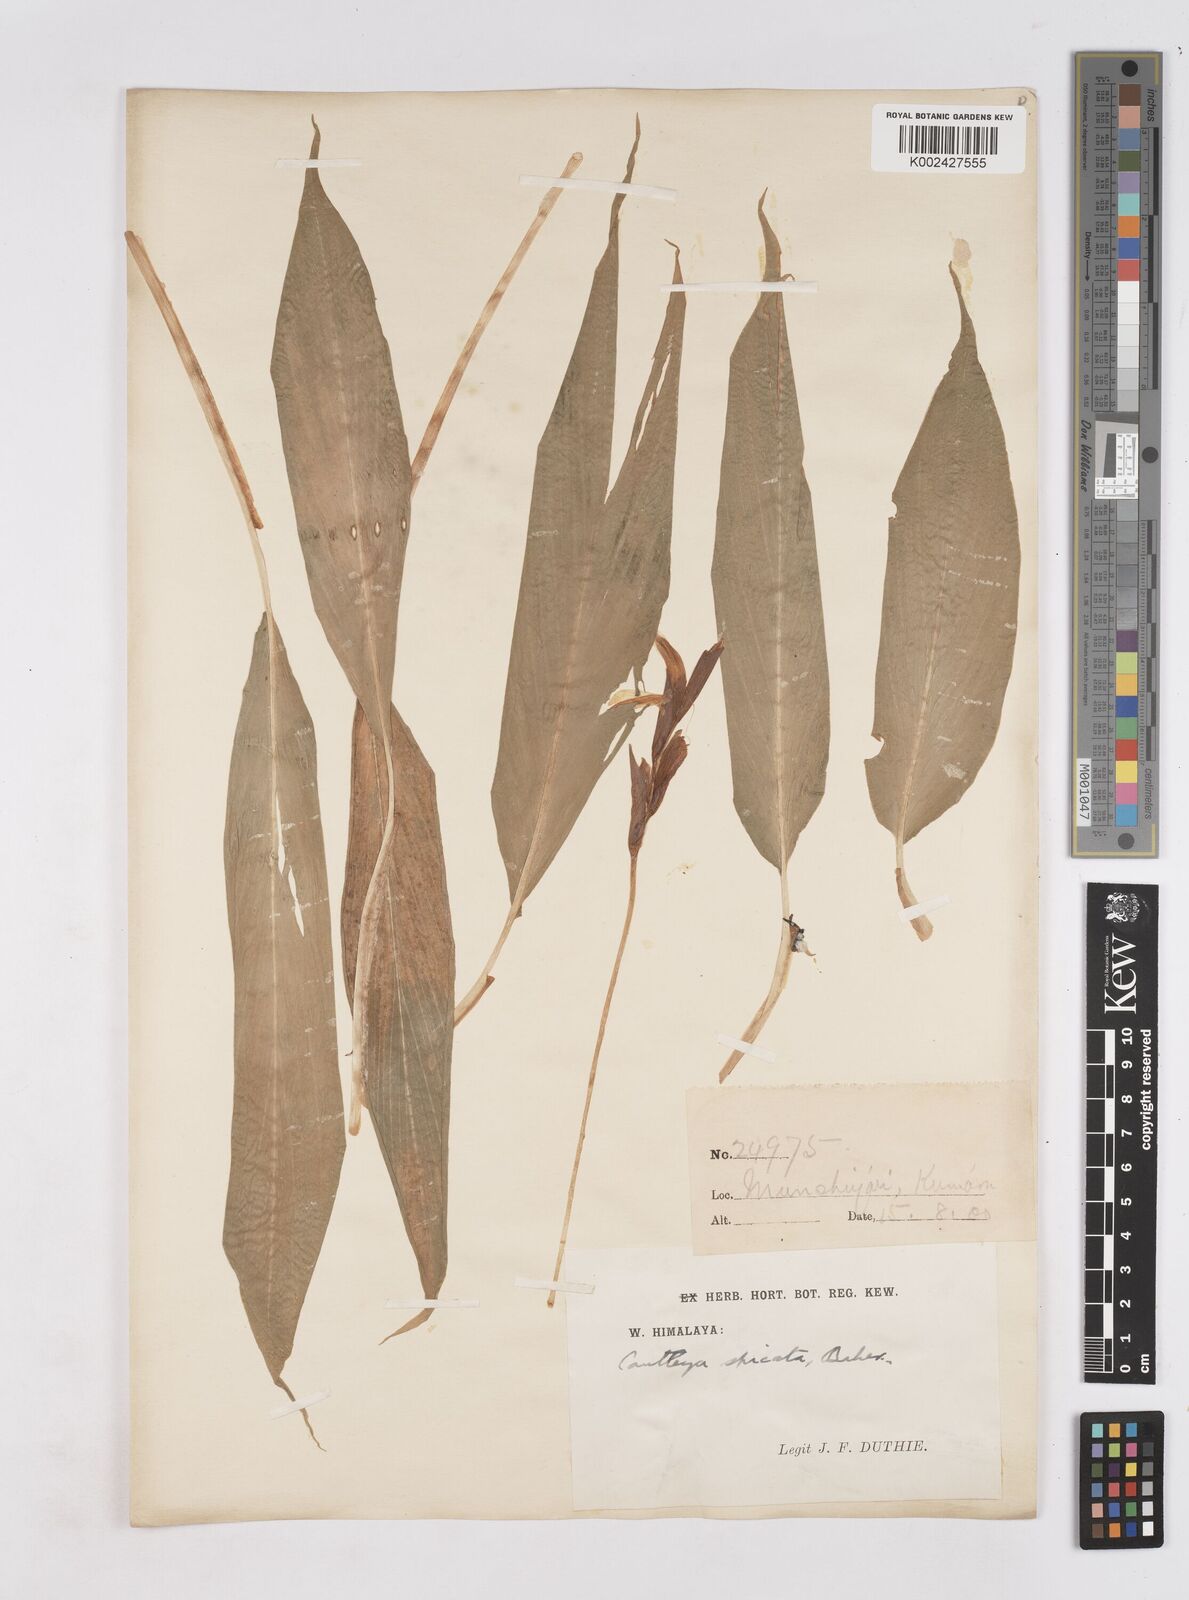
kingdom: Plantae
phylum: Tracheophyta
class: Liliopsida
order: Zingiberales
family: Zingiberaceae
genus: Cautleya
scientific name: Cautleya spicata
